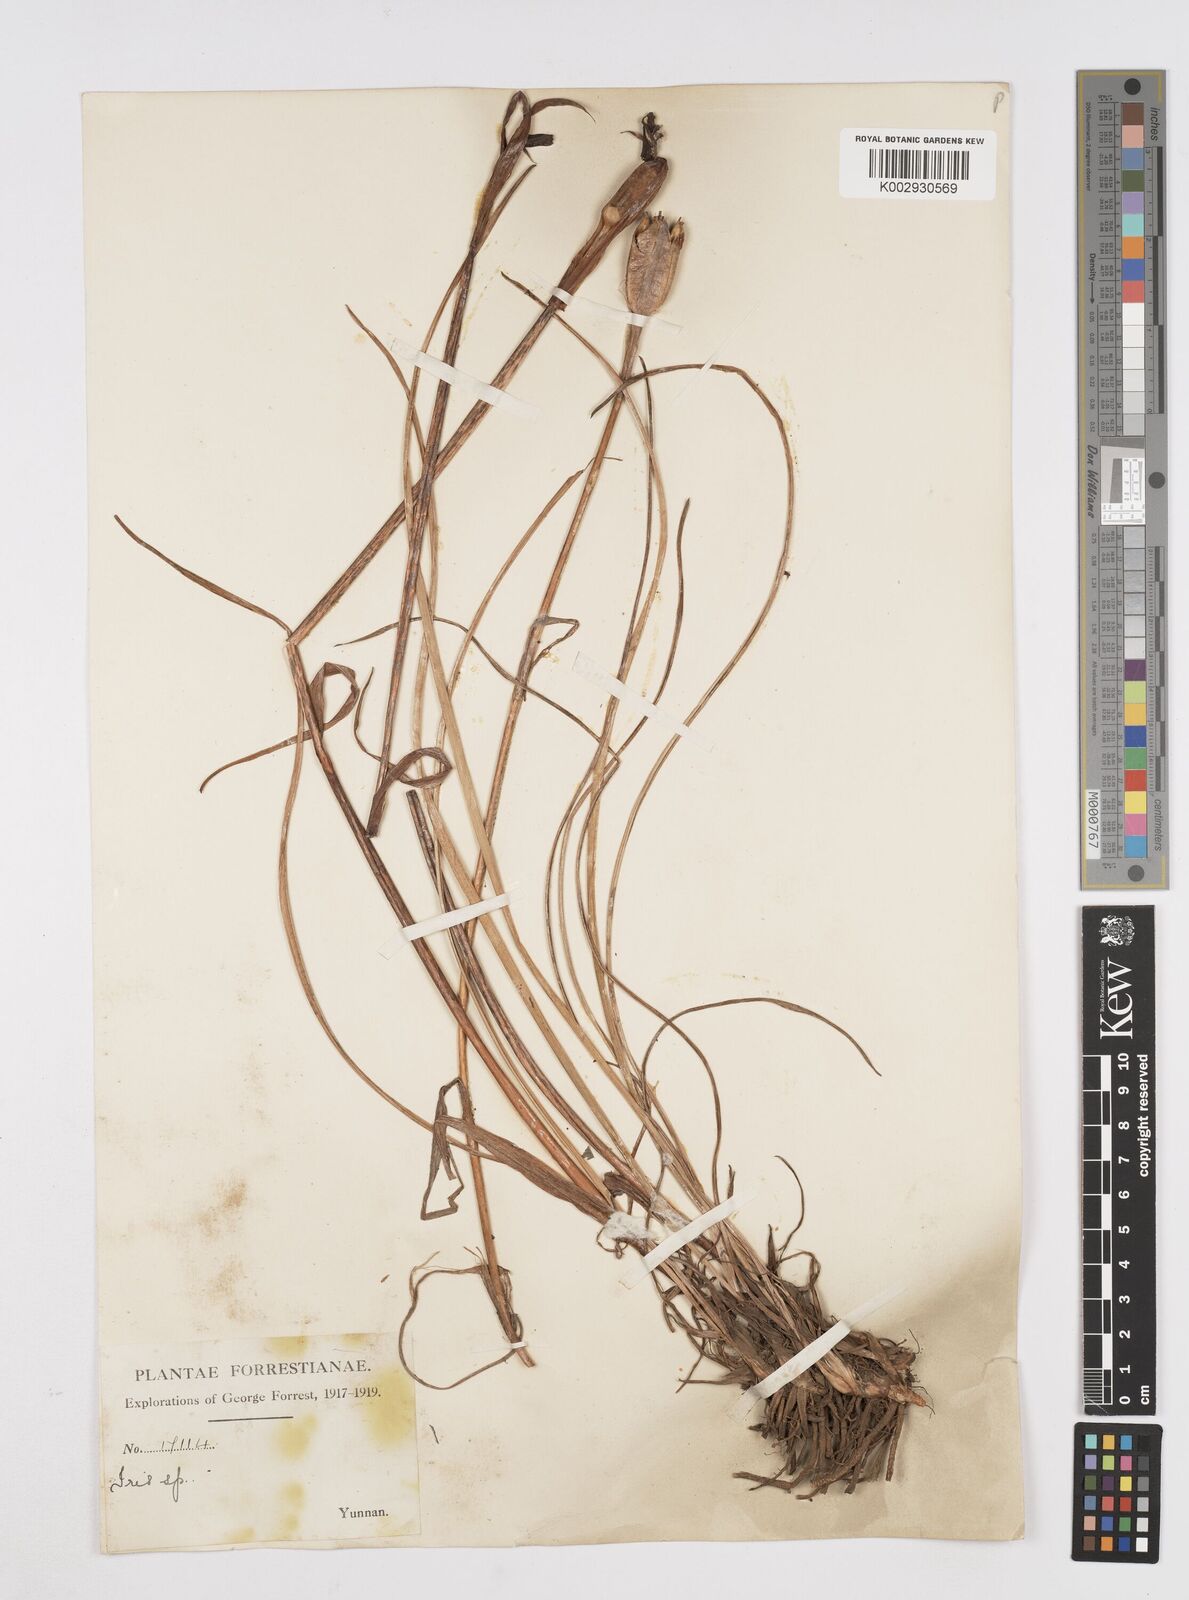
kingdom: Plantae
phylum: Tracheophyta
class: Liliopsida
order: Asparagales
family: Iridaceae
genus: Iris
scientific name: Iris bulleyana
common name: Southwest iris
